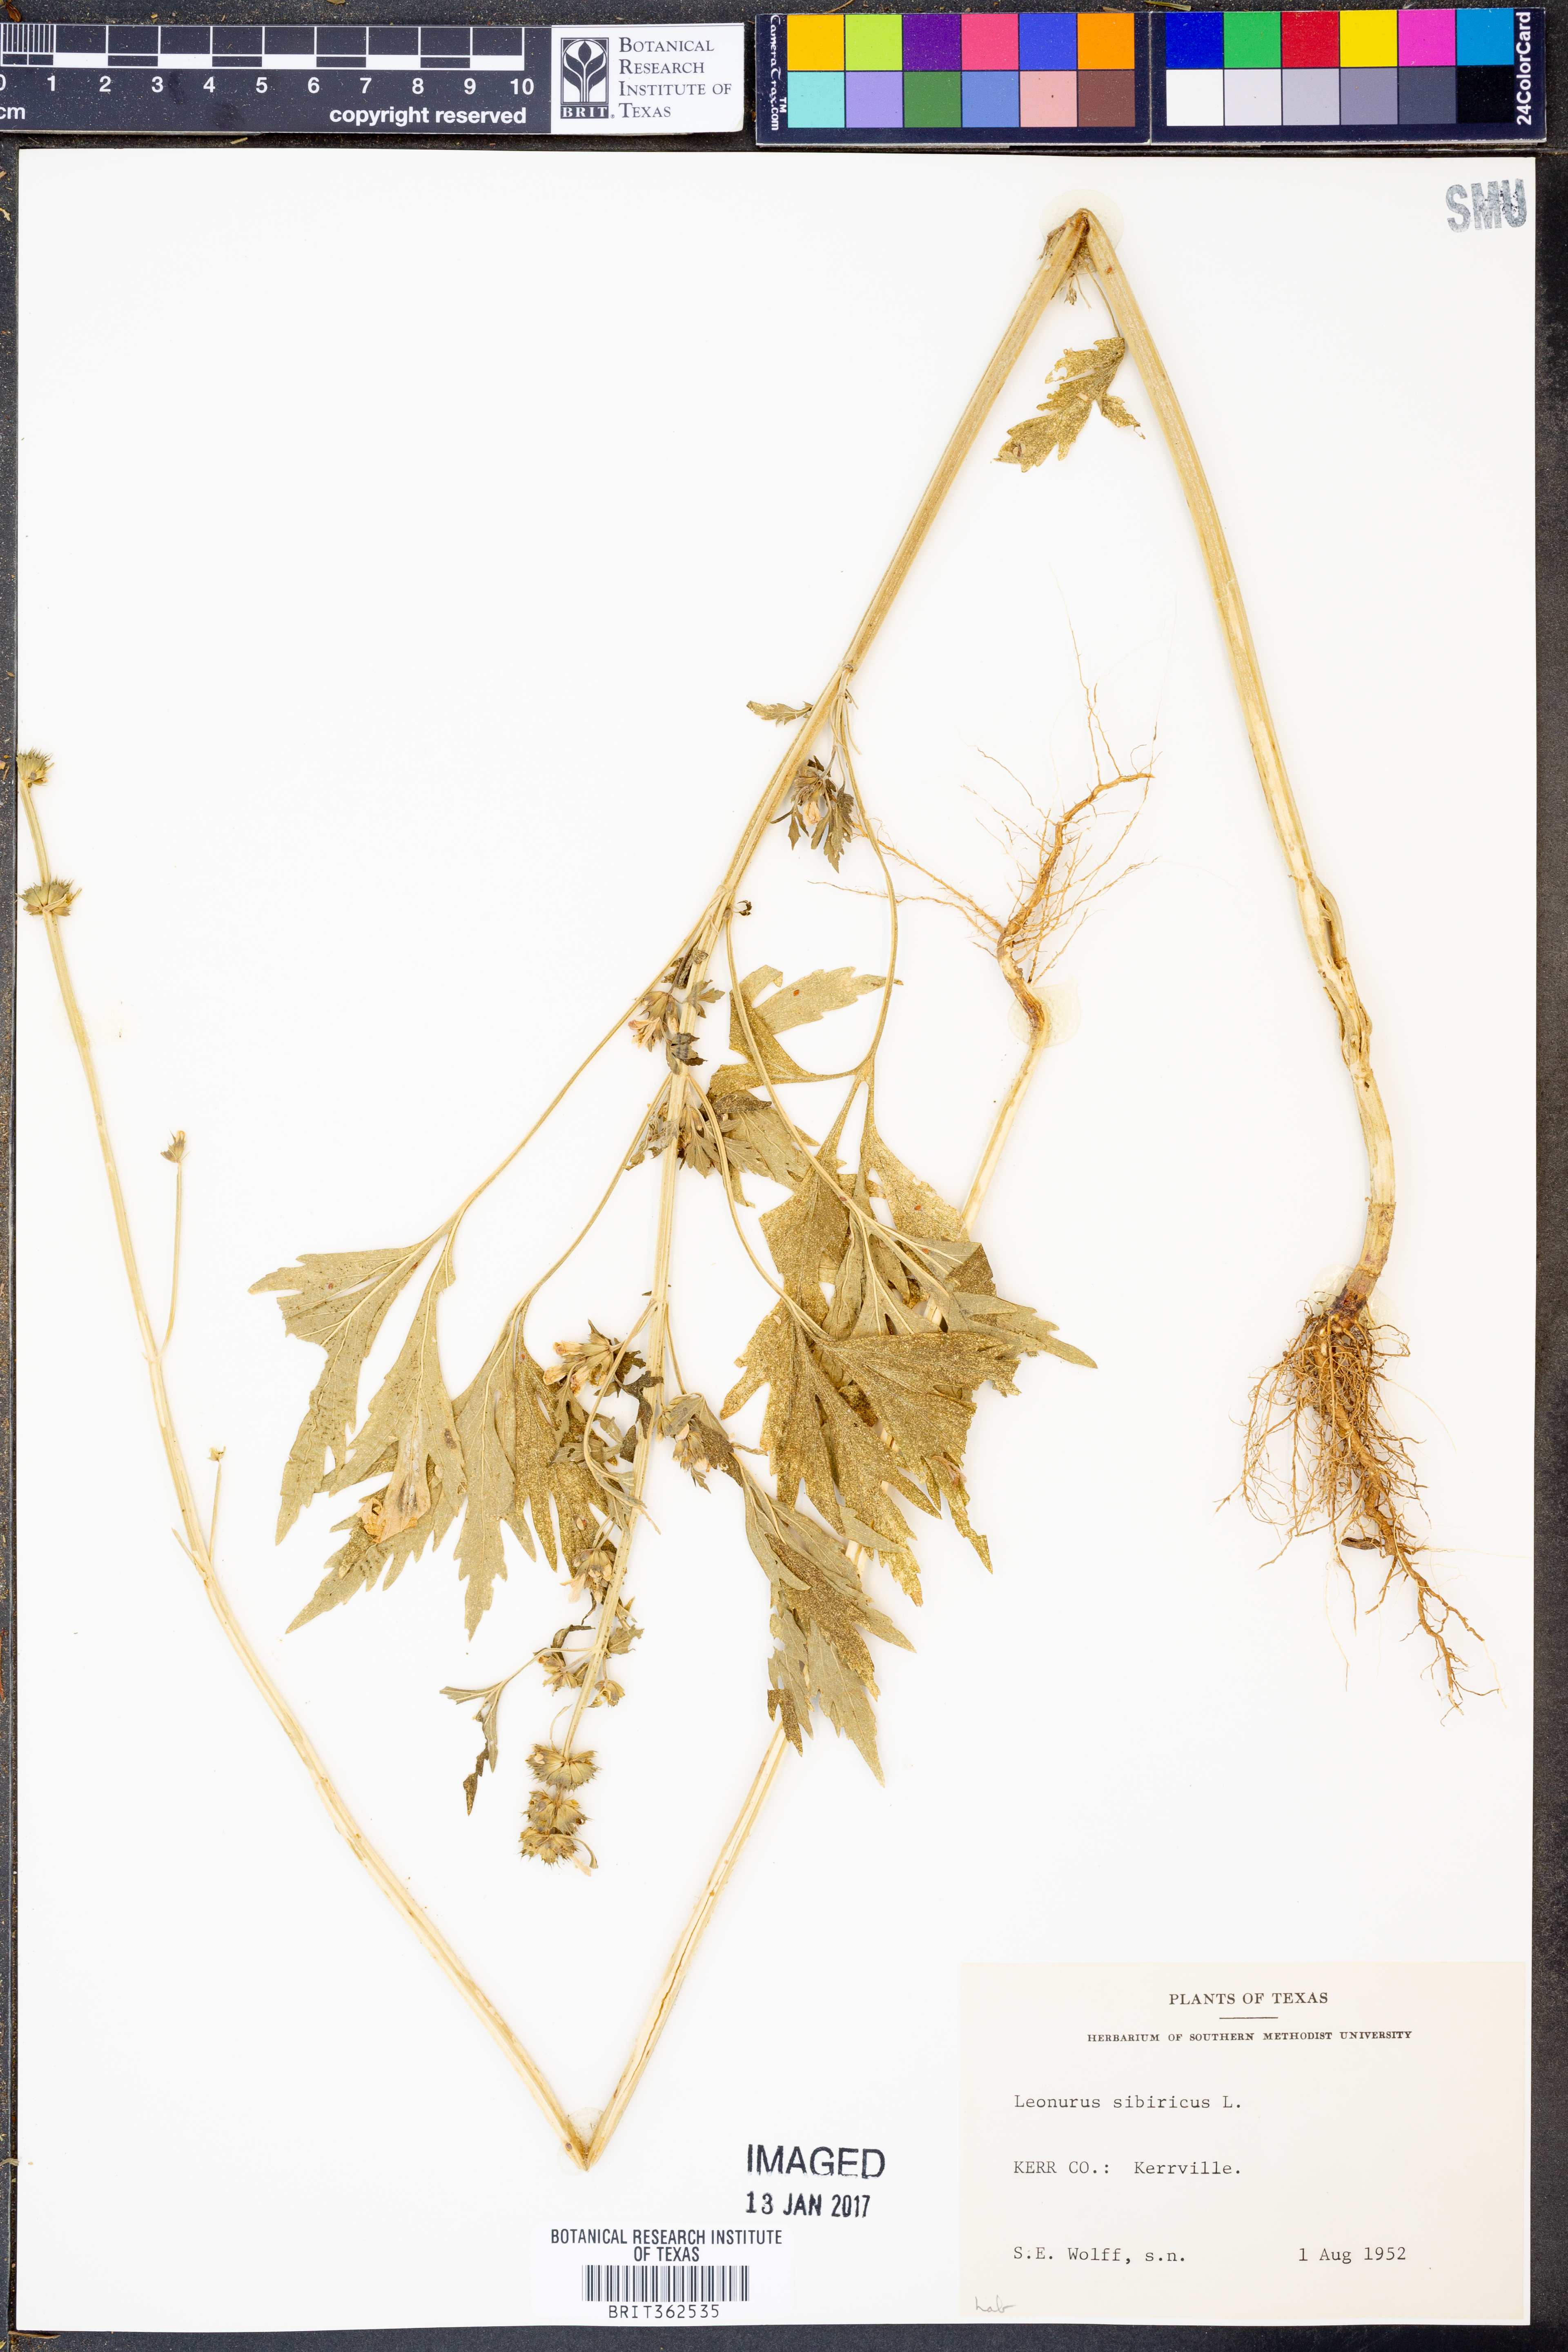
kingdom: Plantae
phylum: Tracheophyta
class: Magnoliopsida
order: Lamiales
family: Lamiaceae
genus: Leonurus
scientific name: Leonurus sibiricus
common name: Honeyweed
